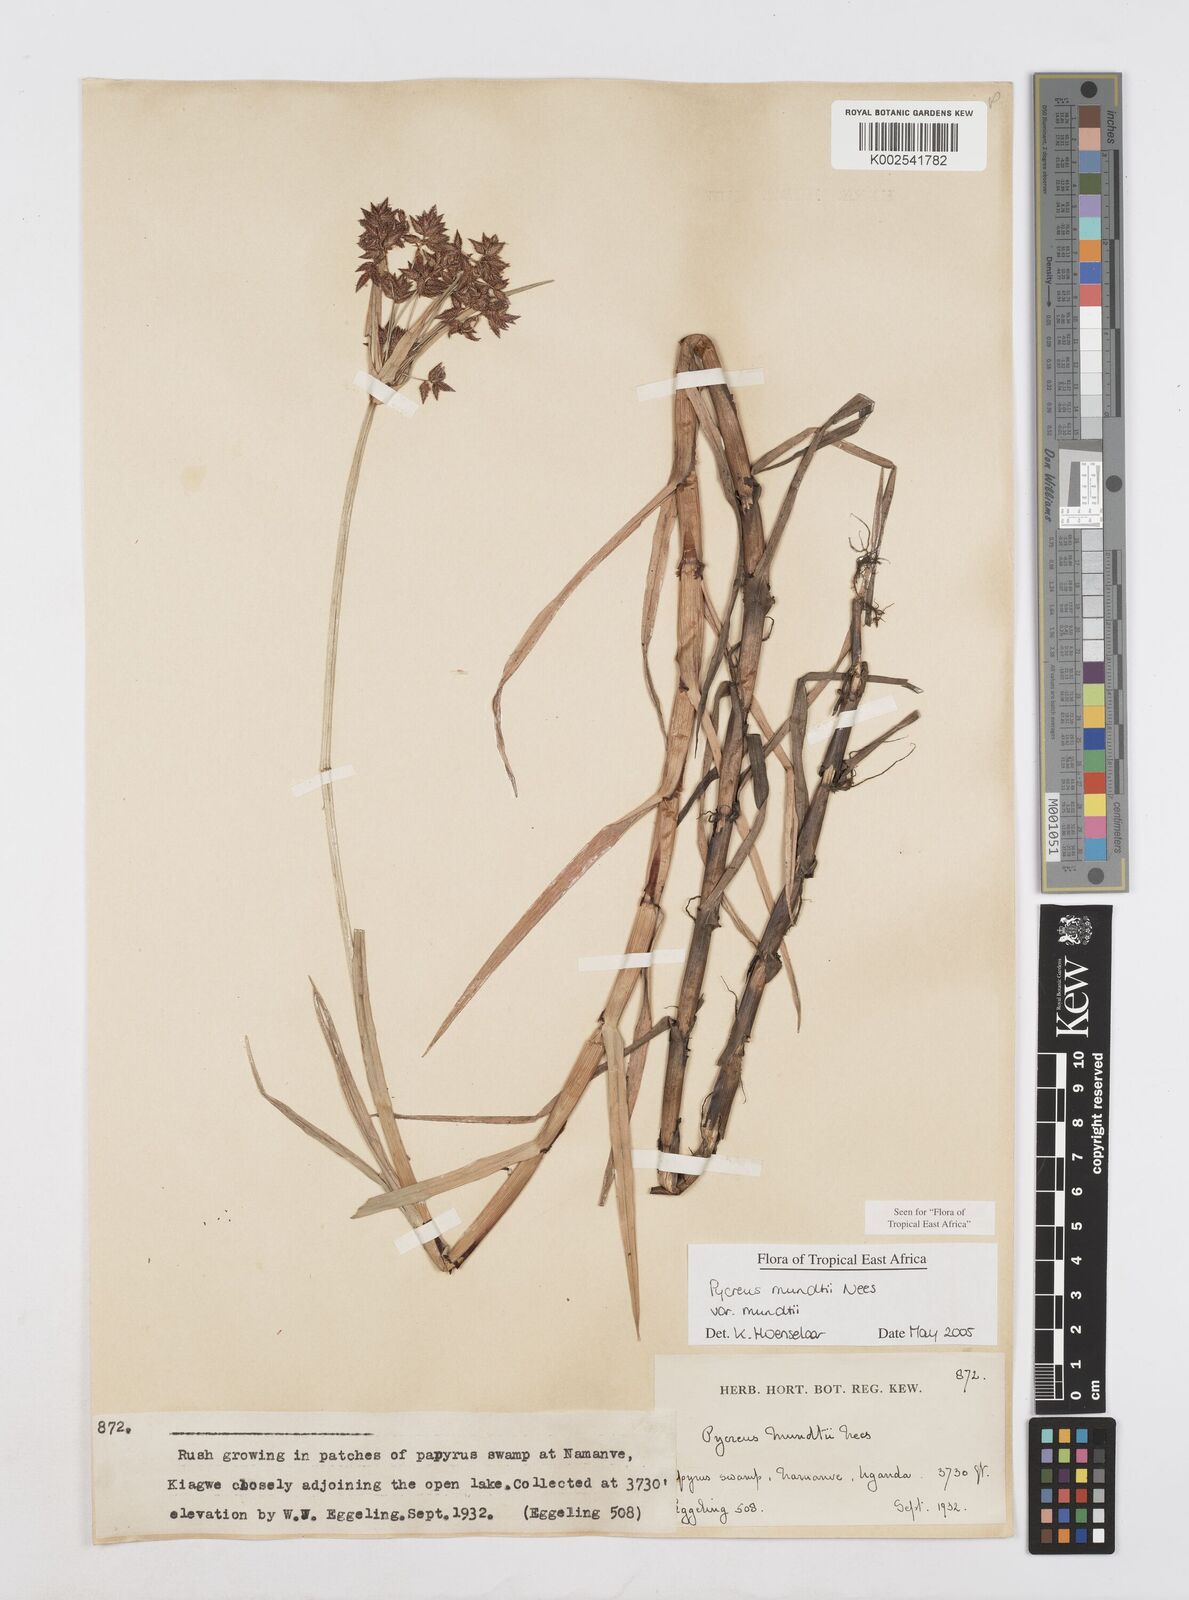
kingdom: Plantae
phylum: Tracheophyta
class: Liliopsida
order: Poales
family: Cyperaceae
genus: Cyperus
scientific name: Cyperus mundii
